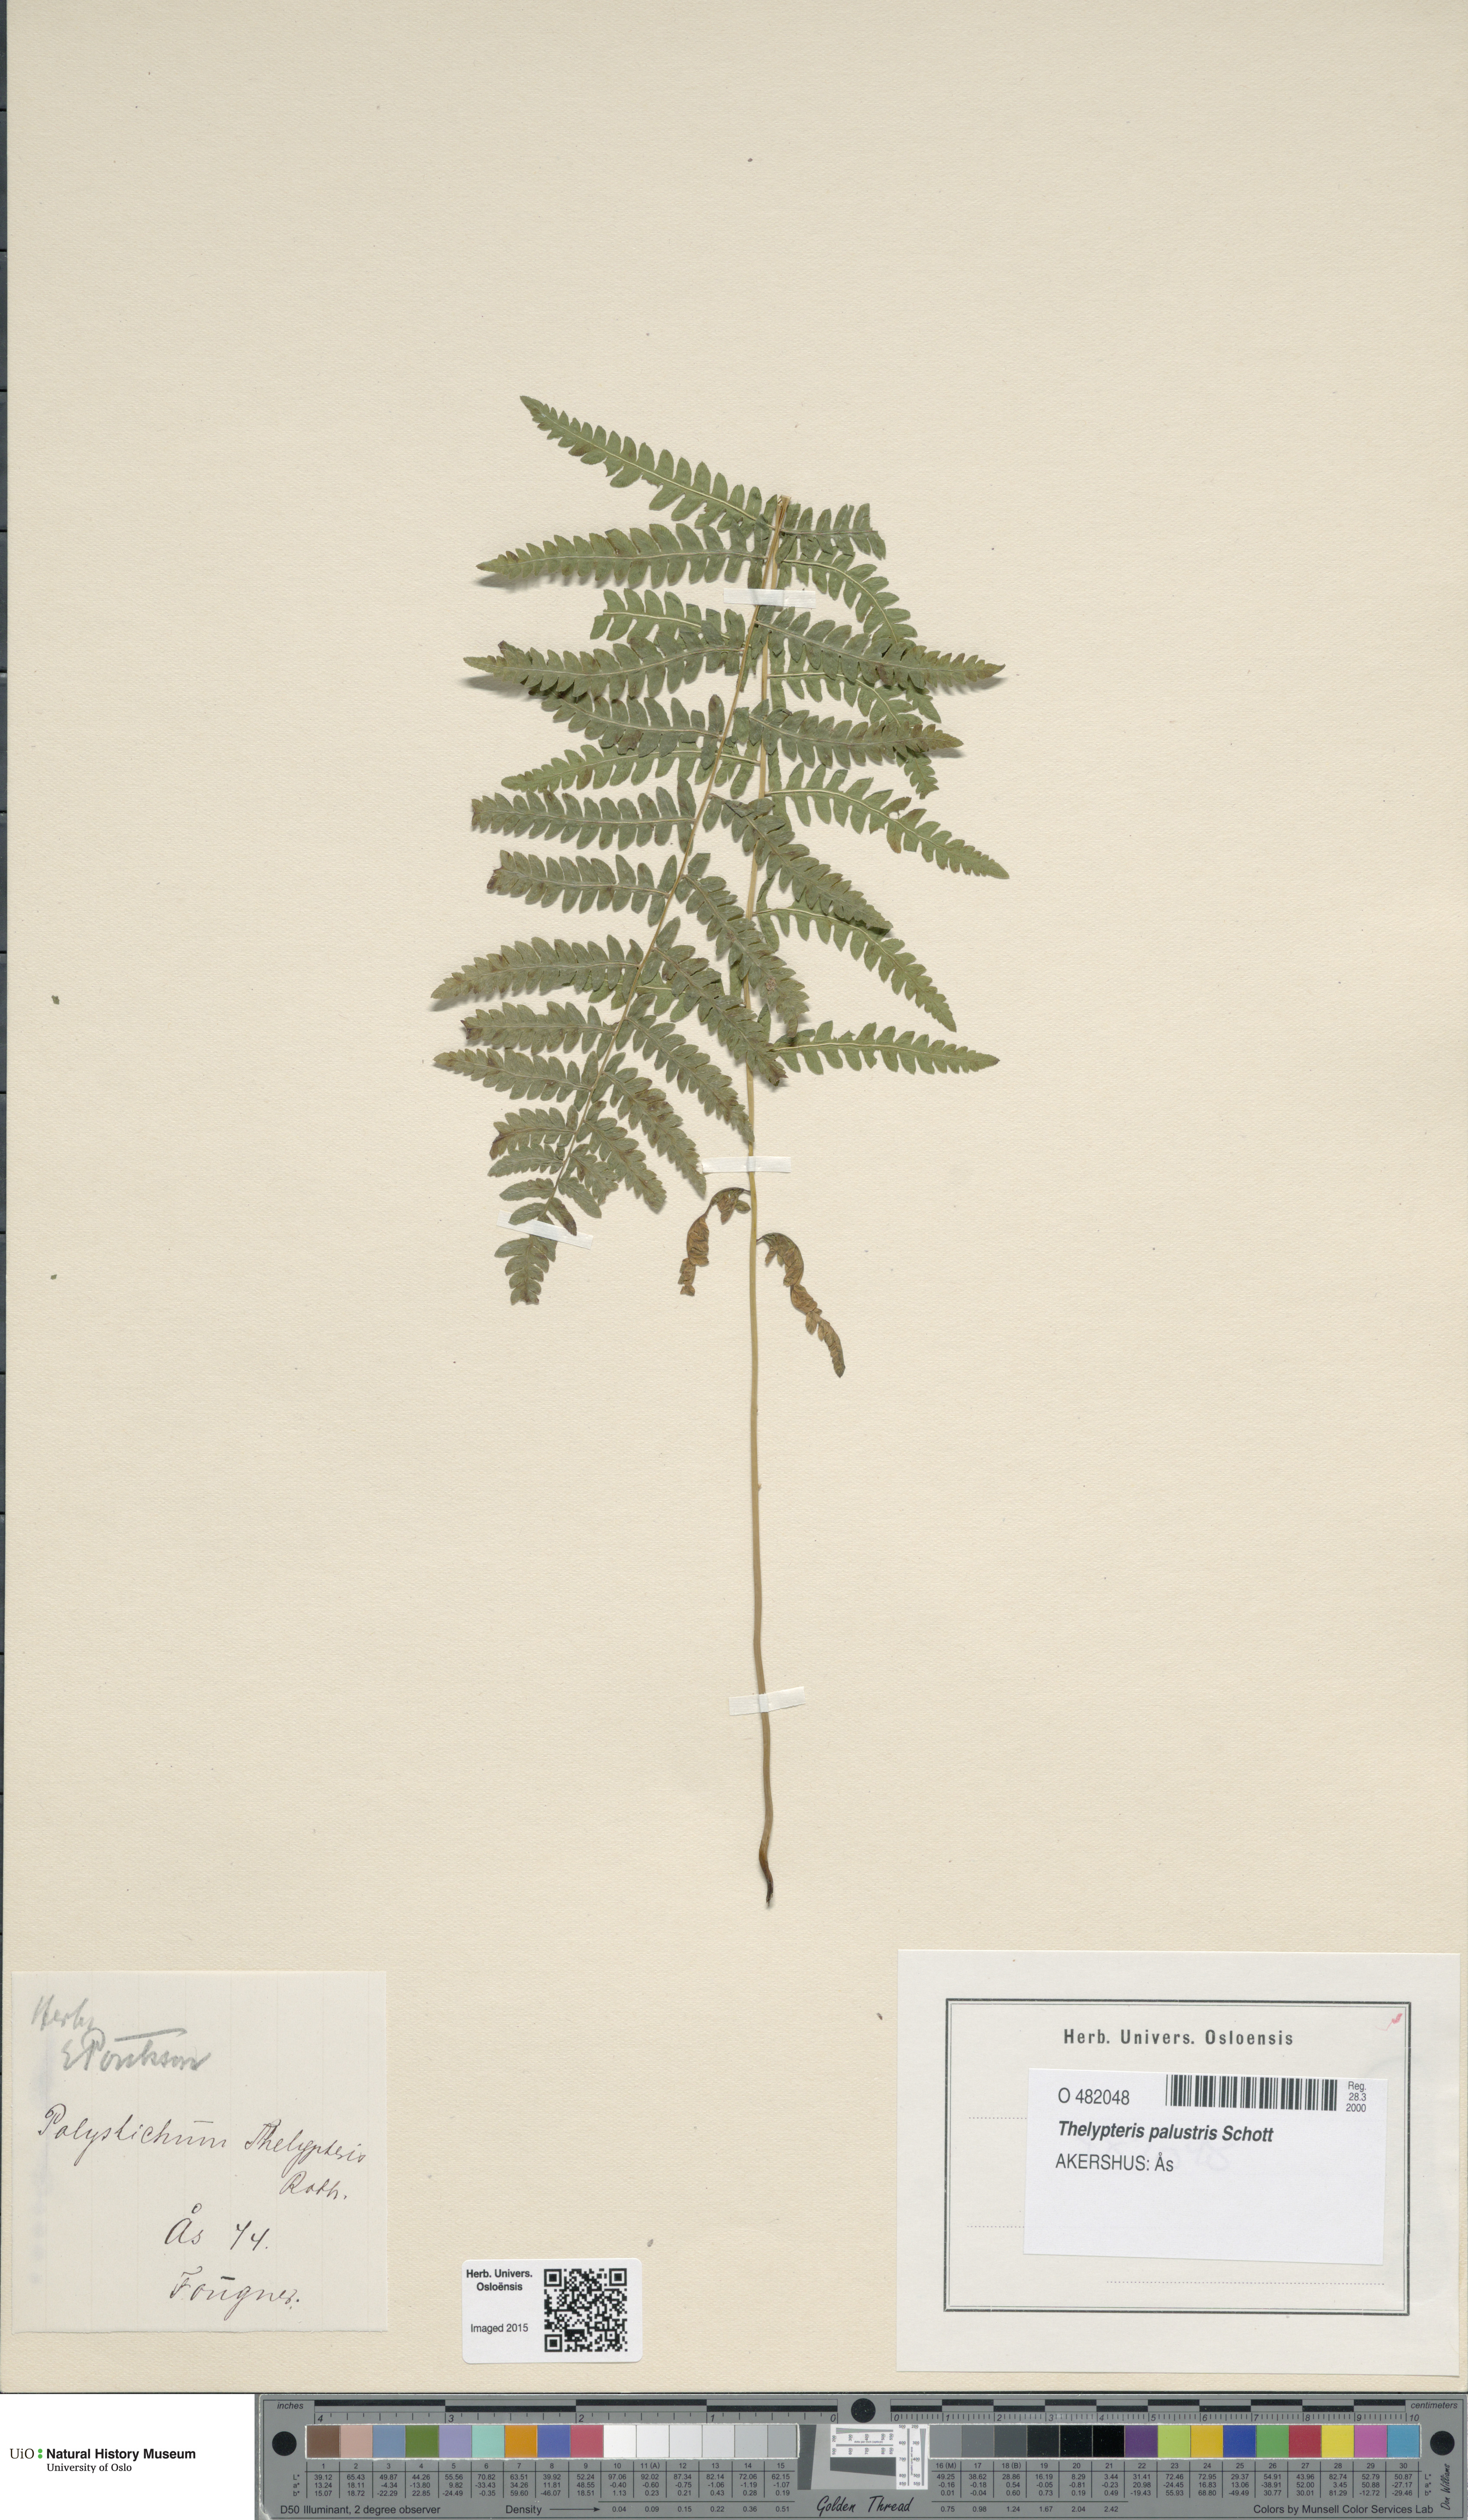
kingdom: Plantae
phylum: Tracheophyta
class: Polypodiopsida
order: Polypodiales
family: Thelypteridaceae
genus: Thelypteris
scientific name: Thelypteris palustris
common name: Marsh fern
